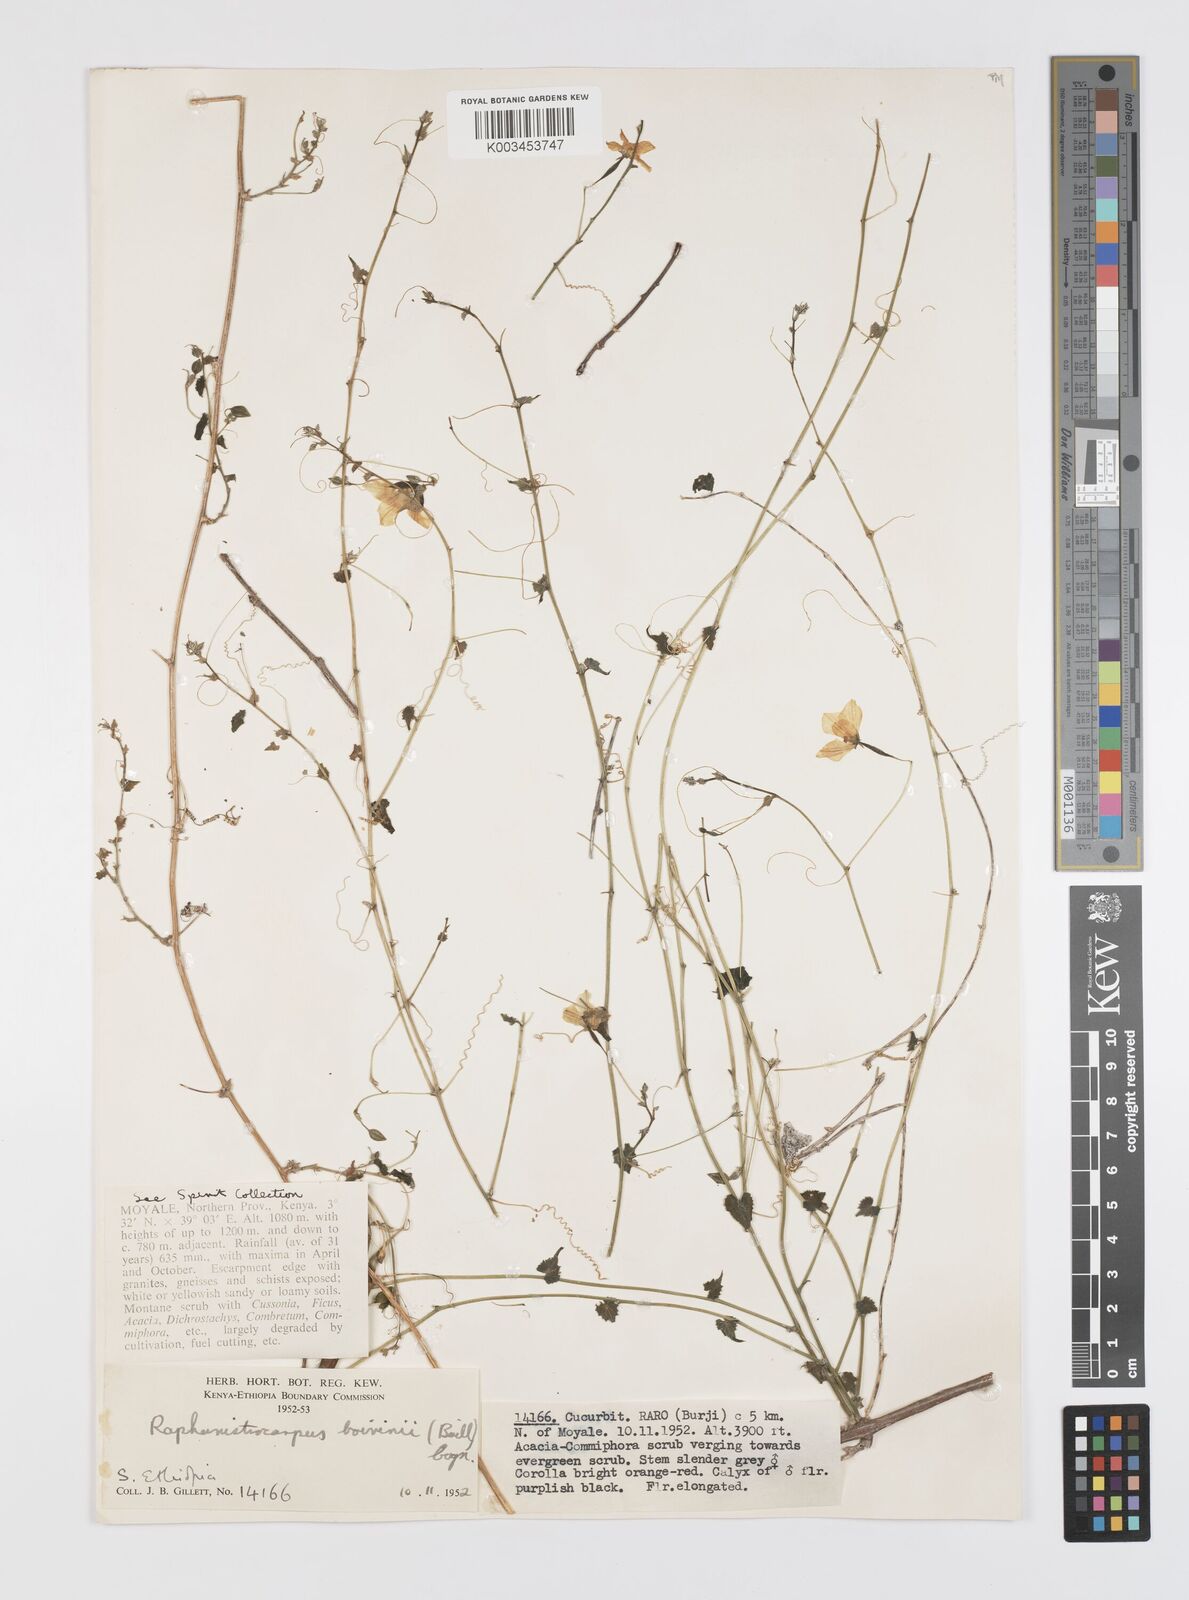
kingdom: Plantae
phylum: Tracheophyta
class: Magnoliopsida
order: Cucurbitales
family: Cucurbitaceae
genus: Momordica
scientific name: Momordica boivinii
